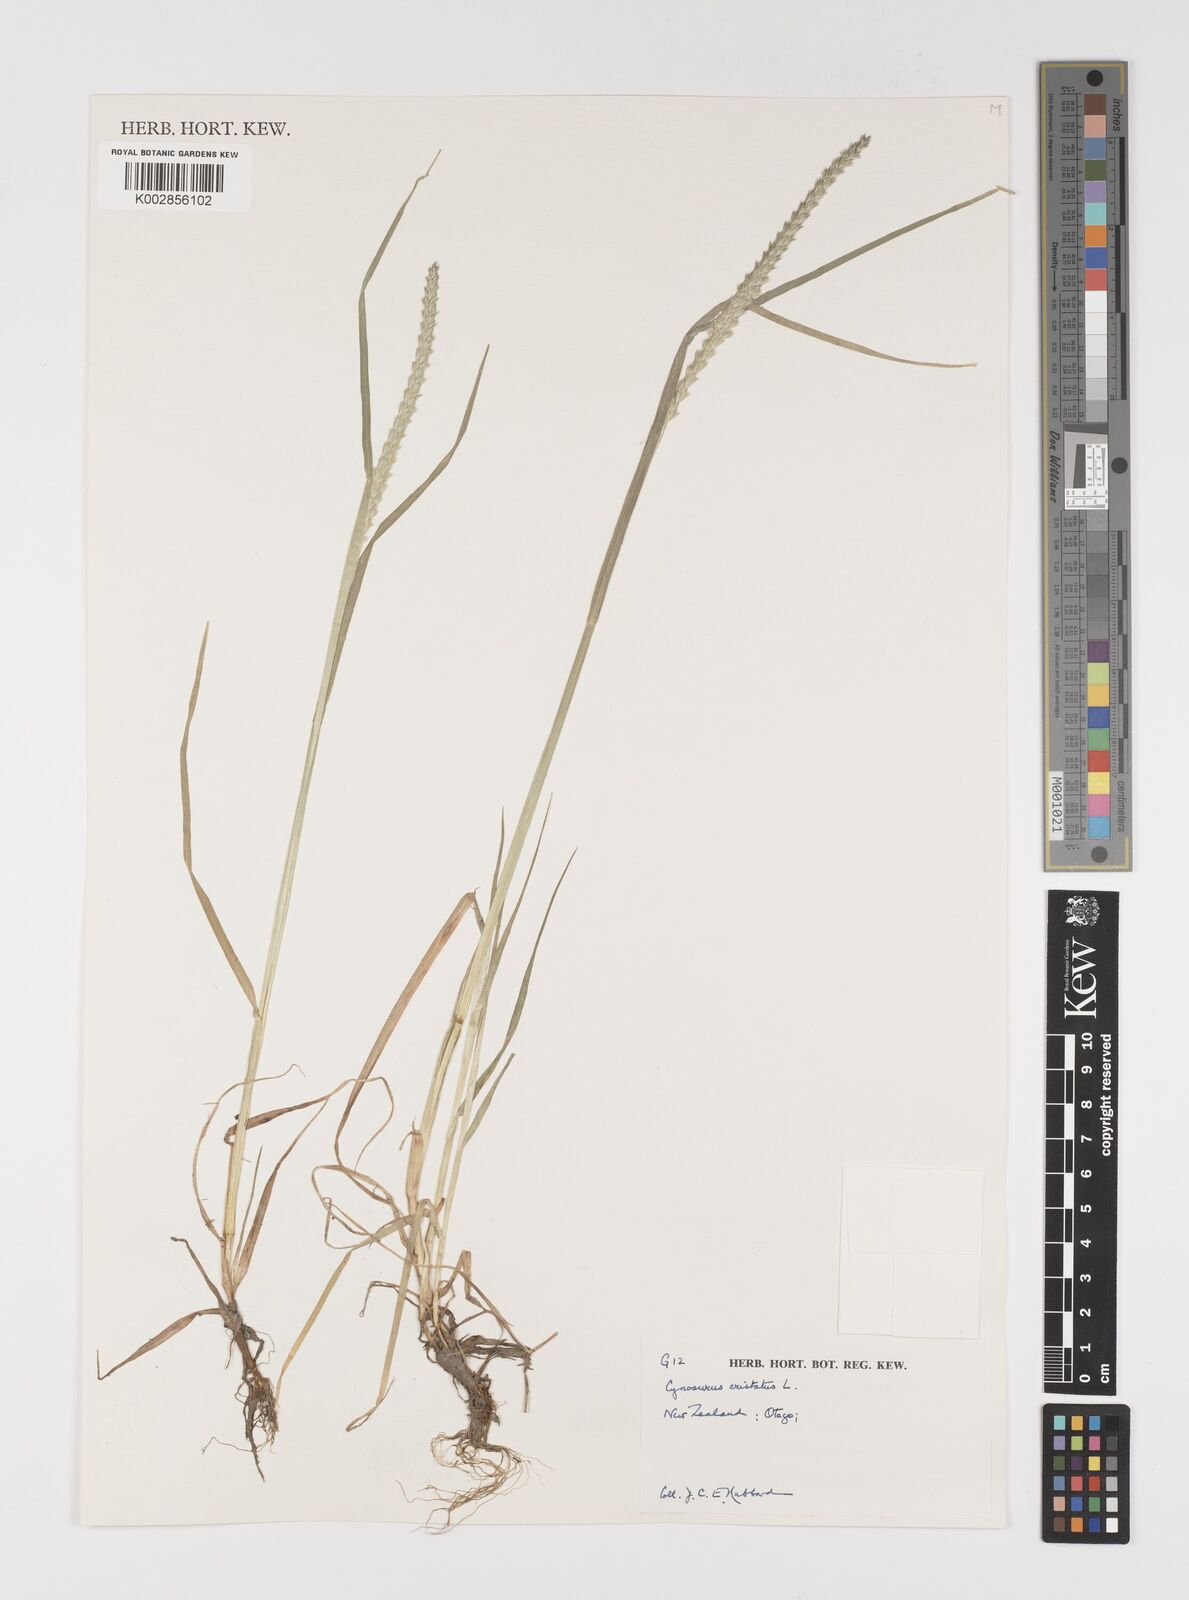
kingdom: Plantae
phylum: Tracheophyta
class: Liliopsida
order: Poales
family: Poaceae
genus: Cynosurus
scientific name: Cynosurus cristatus
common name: Crested dog's-tail
